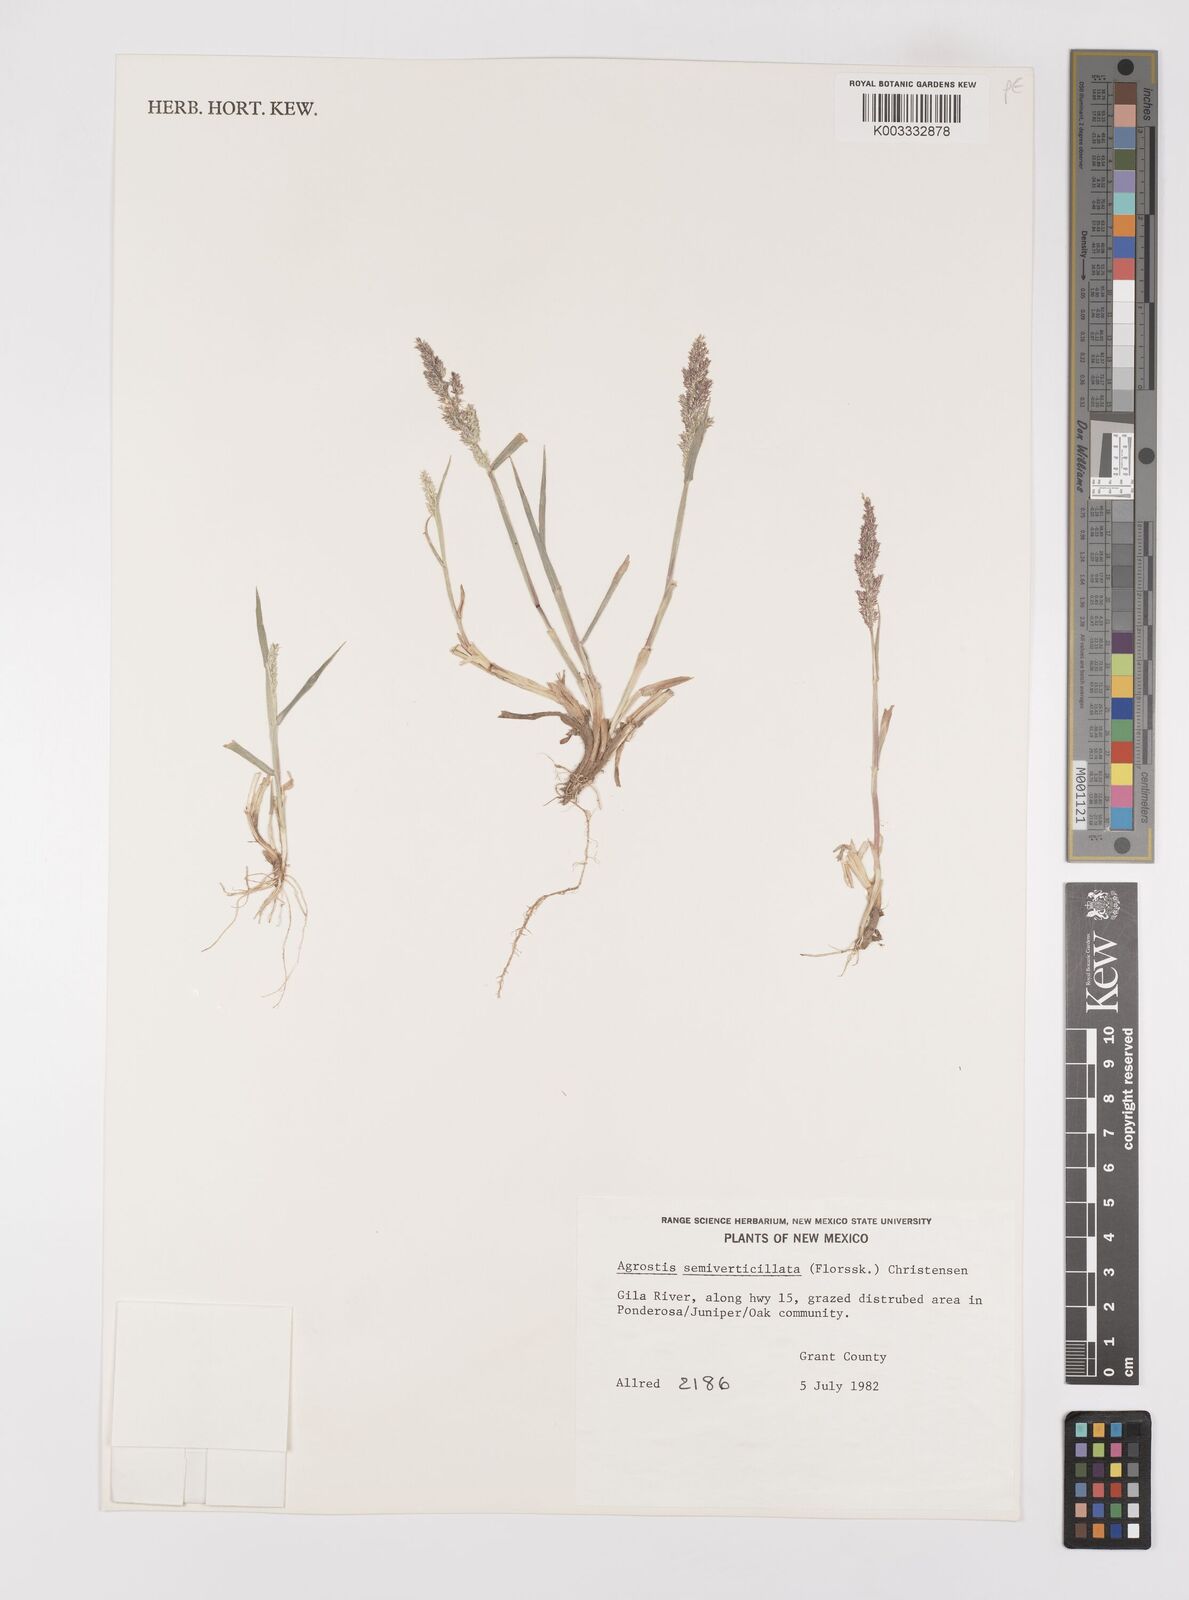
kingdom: Plantae
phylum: Tracheophyta
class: Liliopsida
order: Poales
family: Poaceae
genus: Polypogon
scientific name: Polypogon viridis
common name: Water bent
